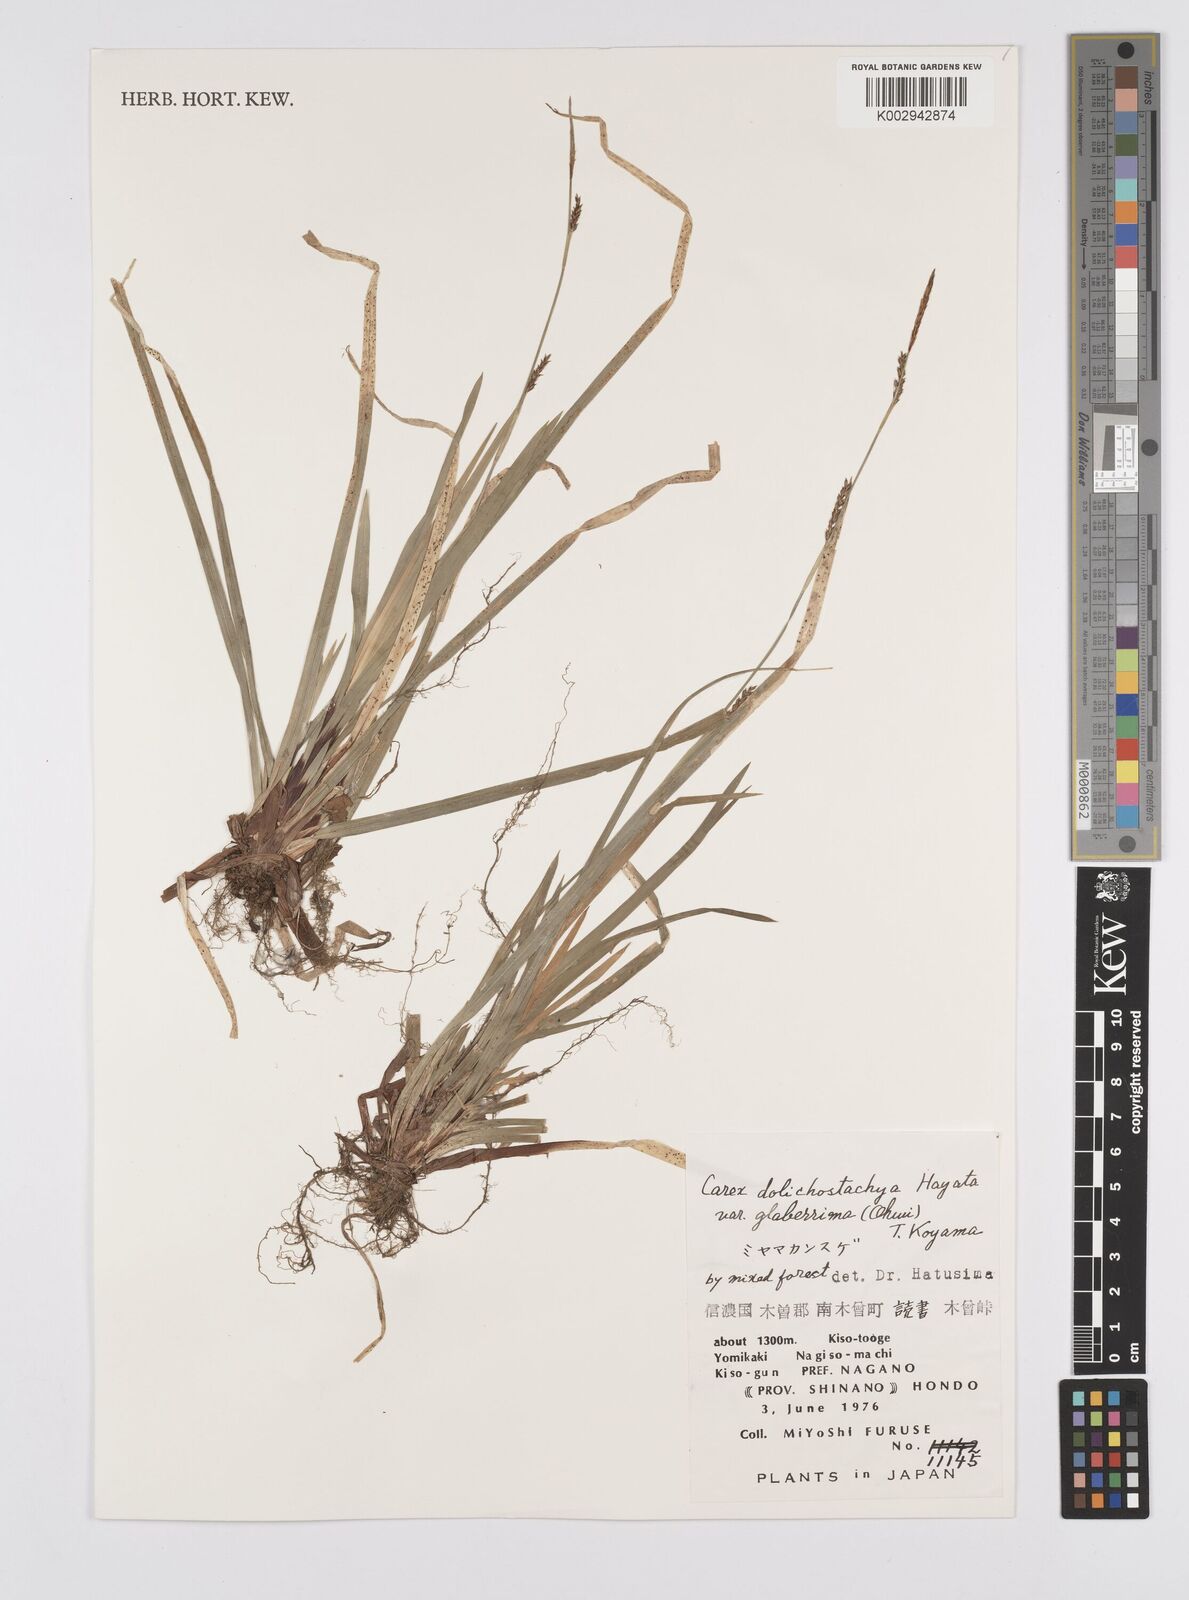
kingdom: Plantae
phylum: Tracheophyta
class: Liliopsida
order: Poales
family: Cyperaceae
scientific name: Cyperaceae
